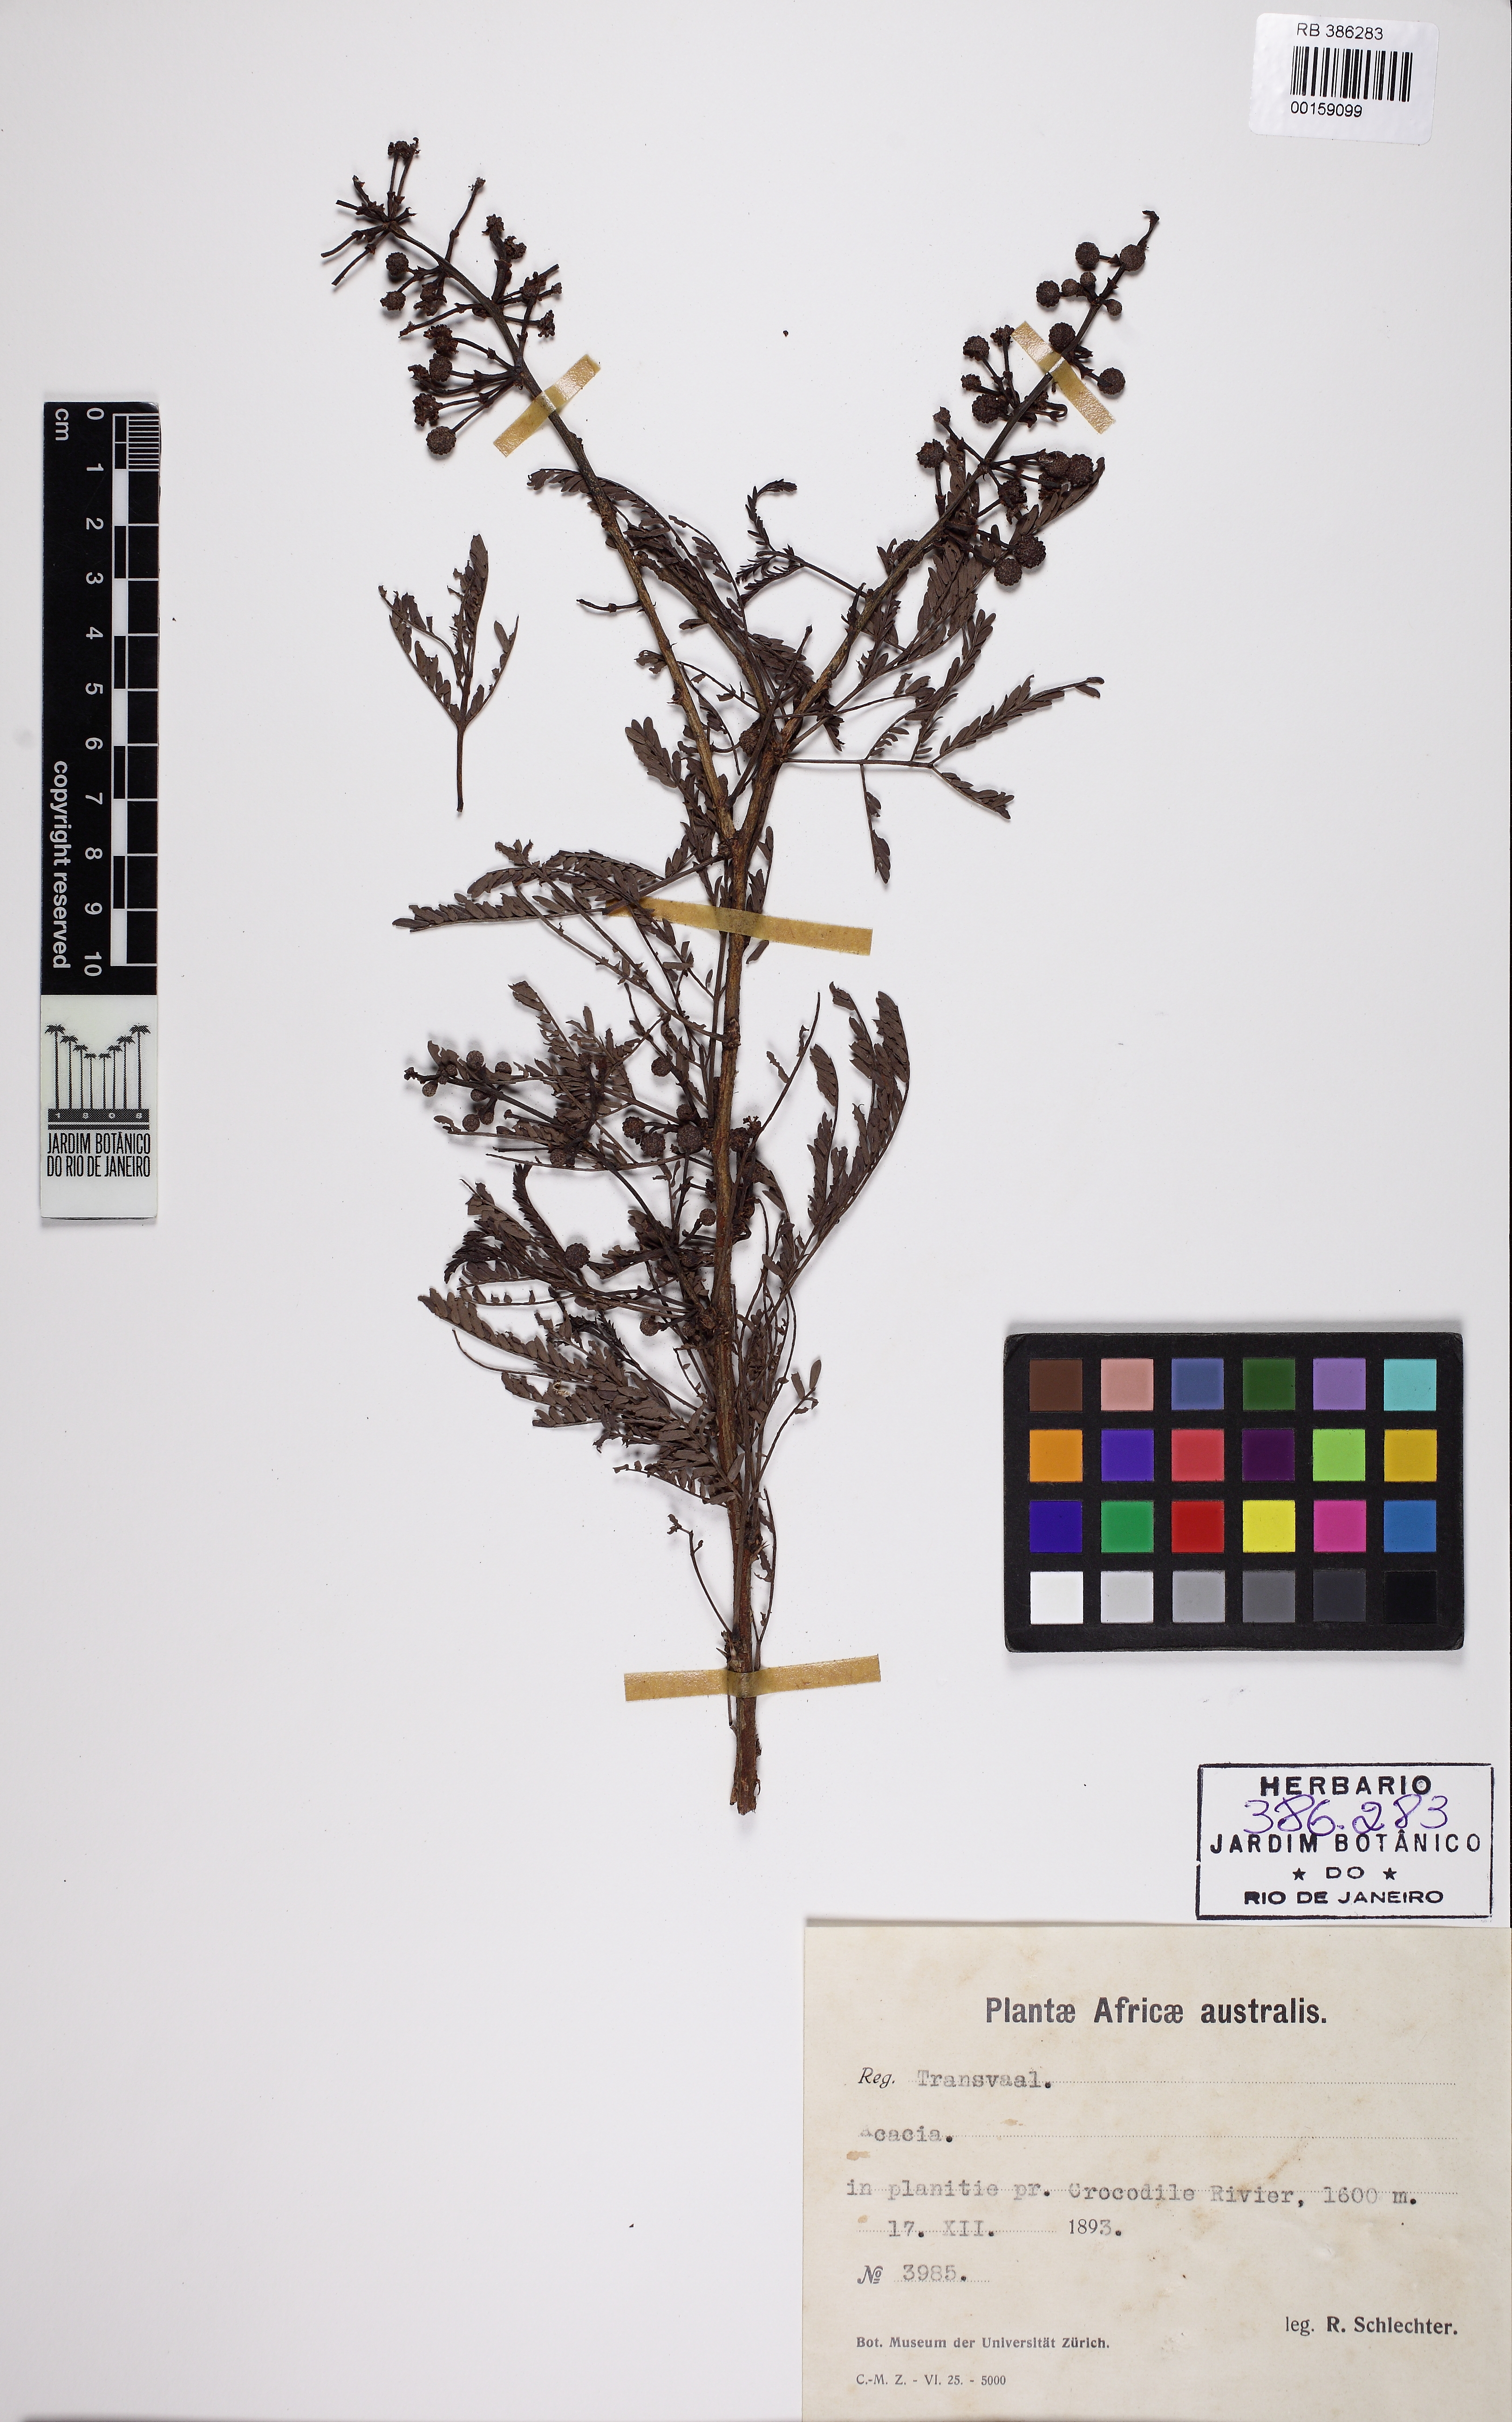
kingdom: Plantae
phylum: Tracheophyta
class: Magnoliopsida
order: Fabales
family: Fabaceae
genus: Acacia
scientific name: Acacia
